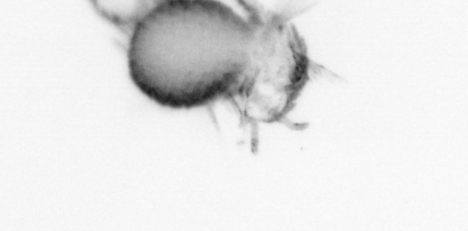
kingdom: Animalia
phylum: Annelida
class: Polychaeta
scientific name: Polychaeta
